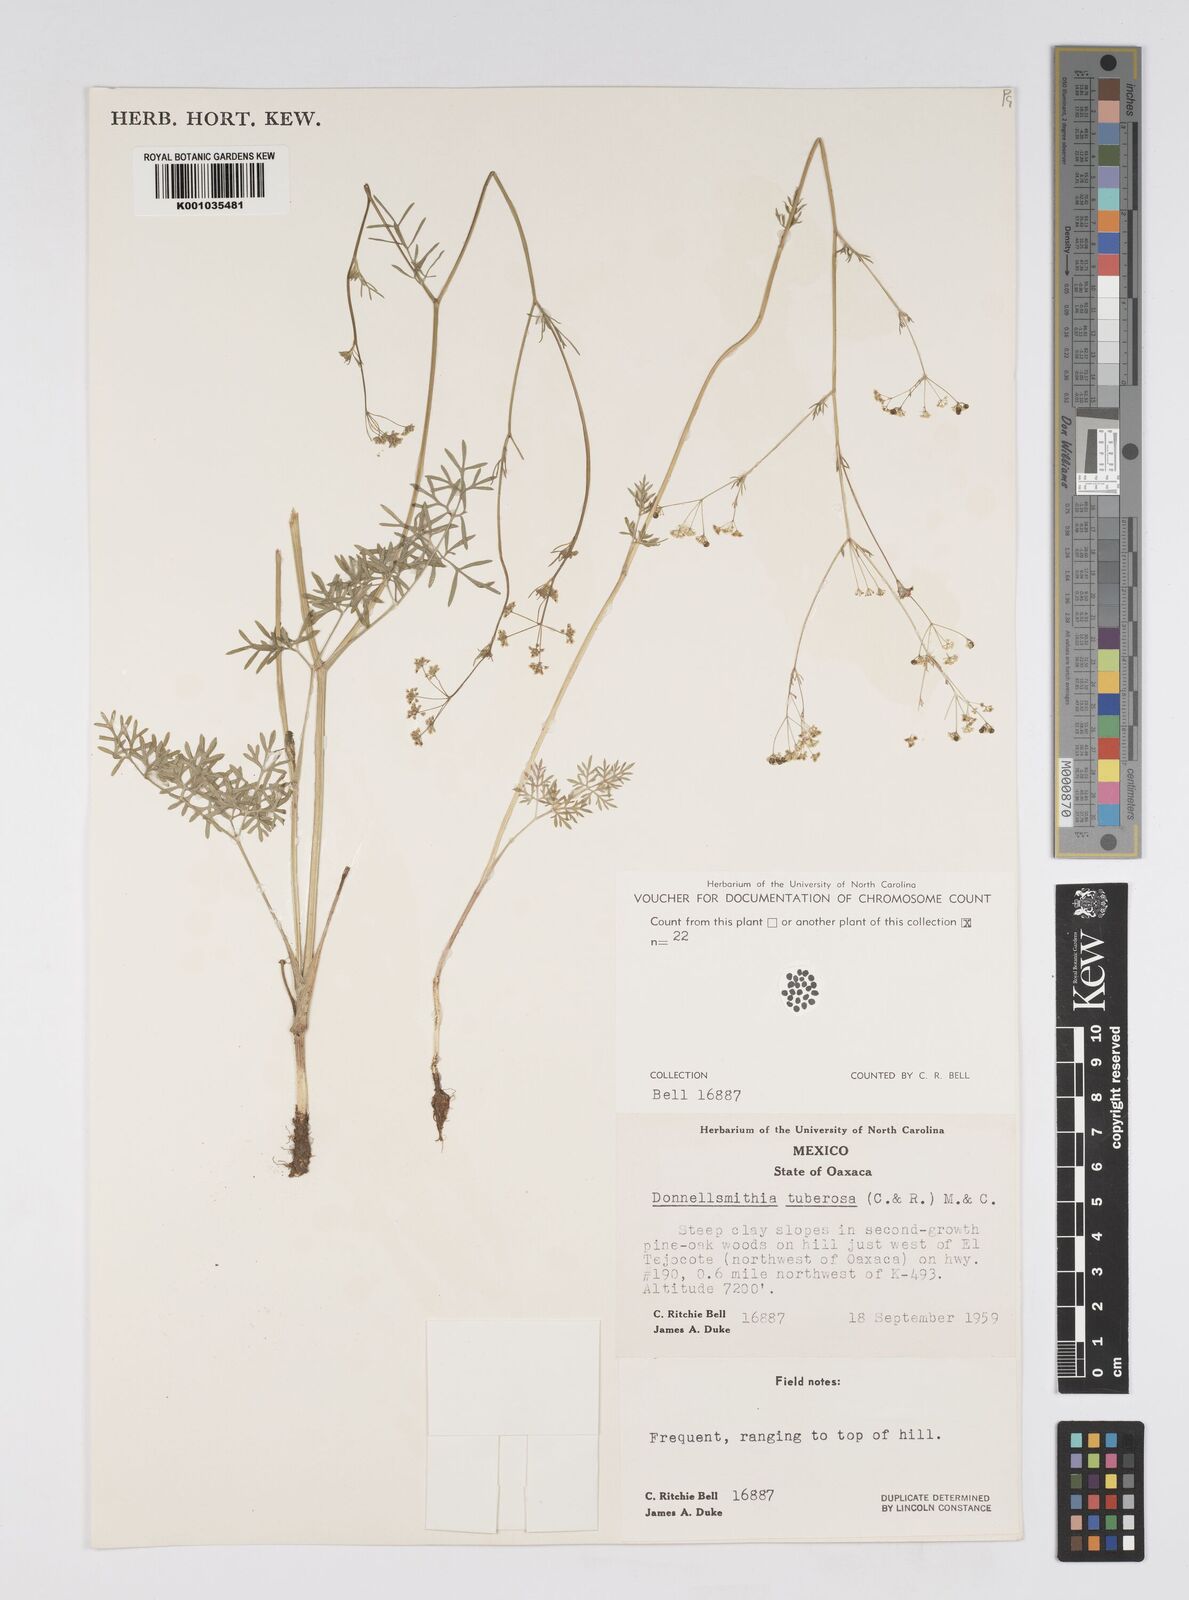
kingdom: Plantae
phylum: Tracheophyta
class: Magnoliopsida
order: Apiales
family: Apiaceae
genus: Donnellsmithia
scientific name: Donnellsmithia tuberosa
